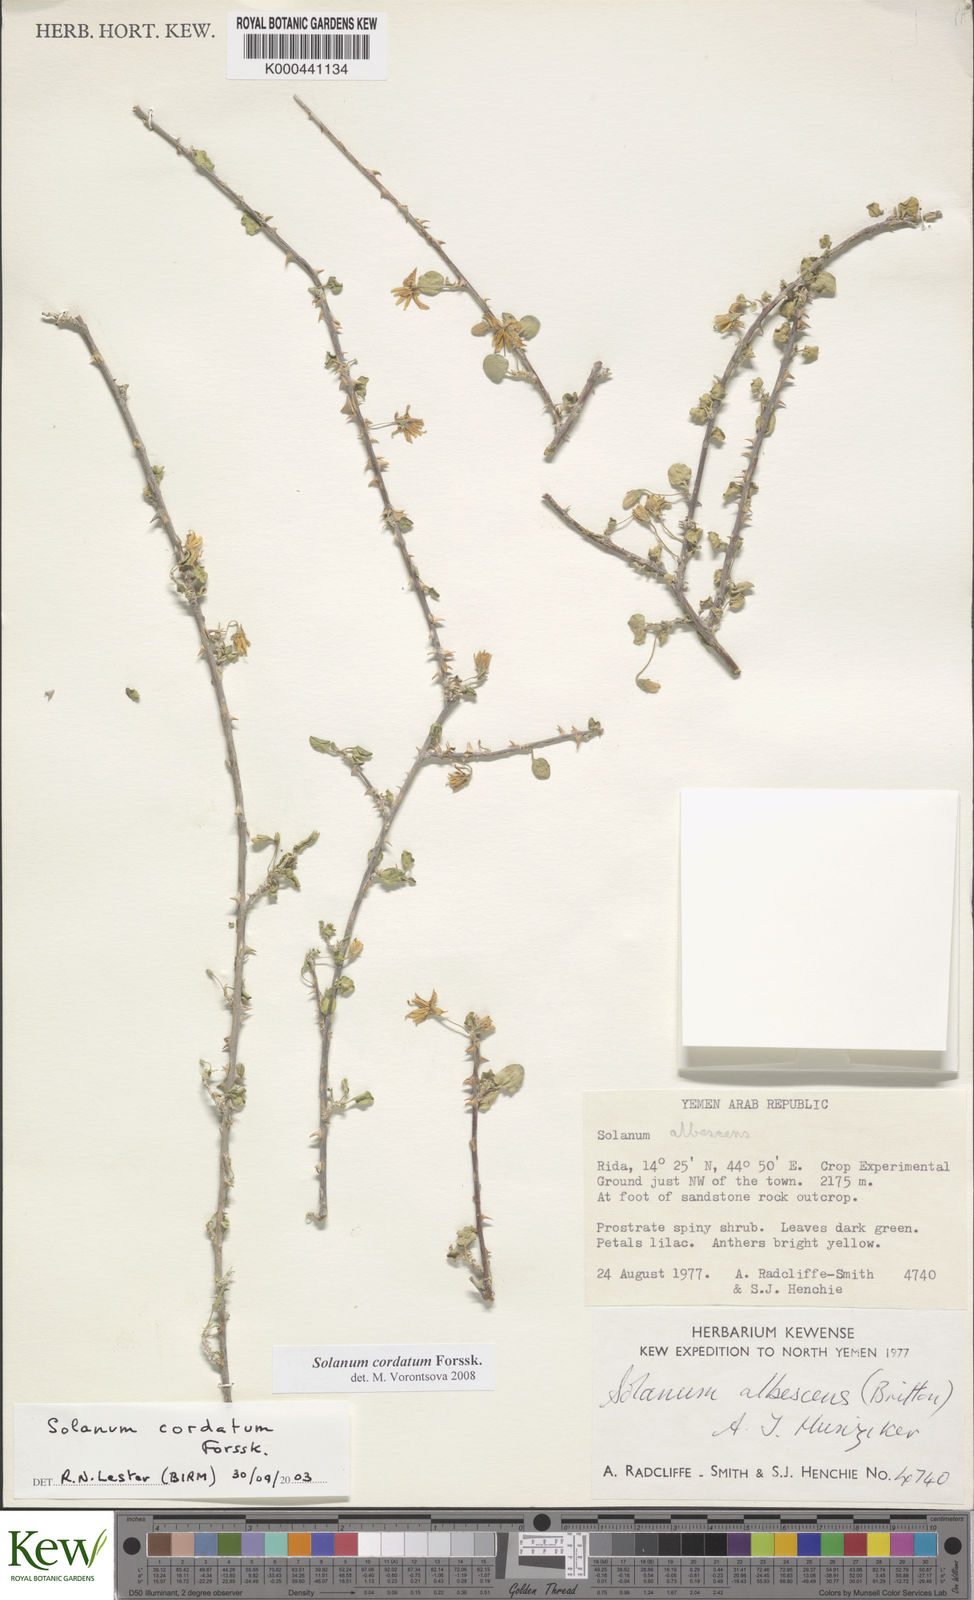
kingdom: Plantae
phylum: Tracheophyta
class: Magnoliopsida
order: Solanales
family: Solanaceae
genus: Solanum
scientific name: Solanum cordatum
